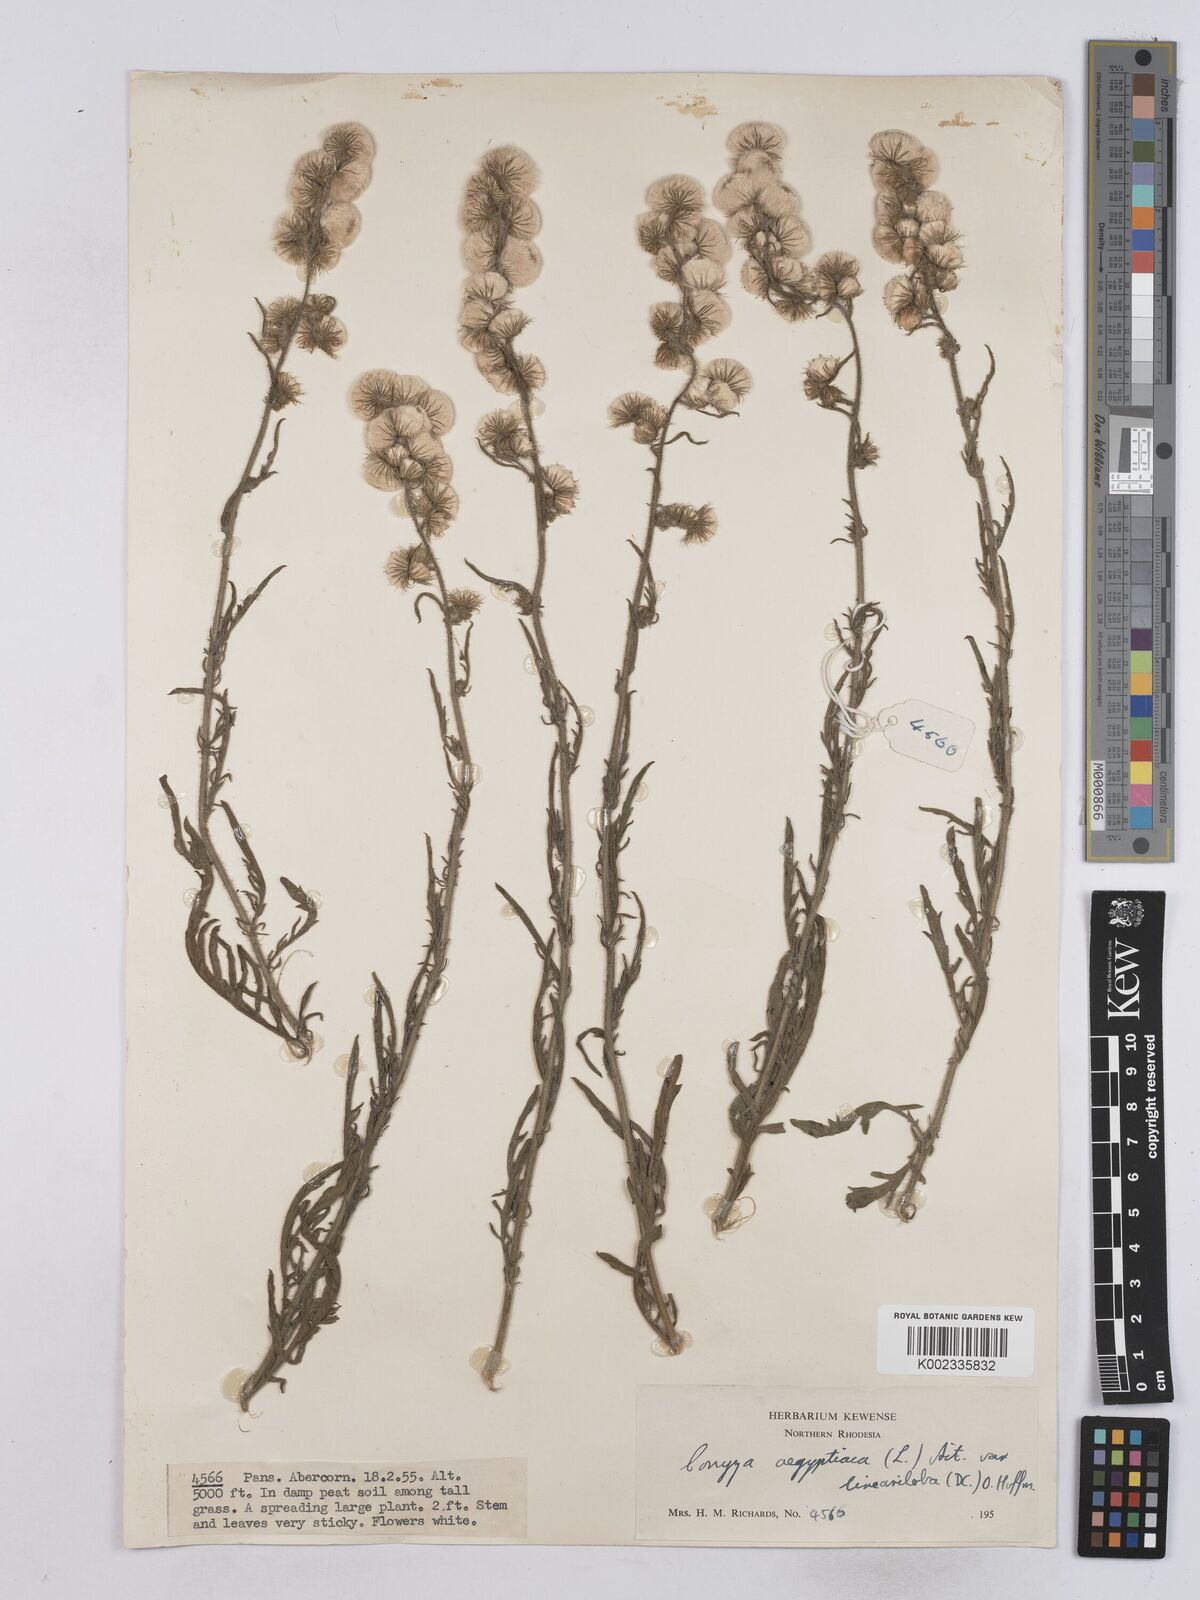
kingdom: Plantae
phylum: Tracheophyta
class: Magnoliopsida
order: Asterales
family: Asteraceae
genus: Nidorella
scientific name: Nidorella aegyptiaca
